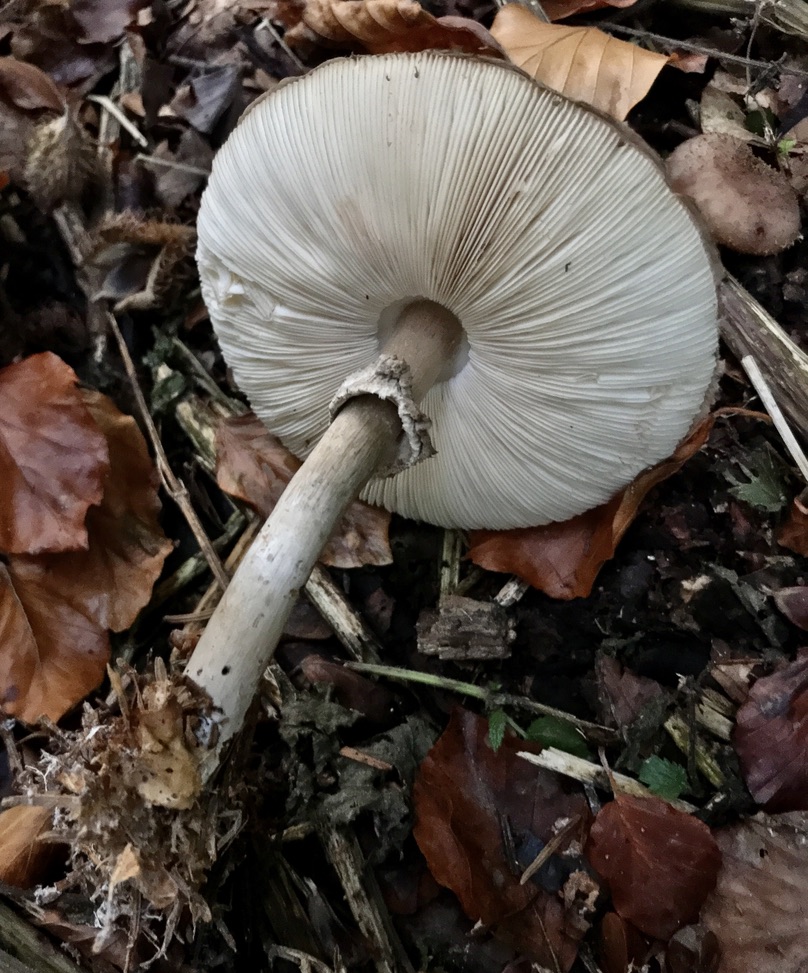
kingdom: Fungi
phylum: Basidiomycota
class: Agaricomycetes
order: Agaricales
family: Agaricaceae
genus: Chlorophyllum
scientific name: Chlorophyllum olivieri
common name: almindelig rabarberhat
